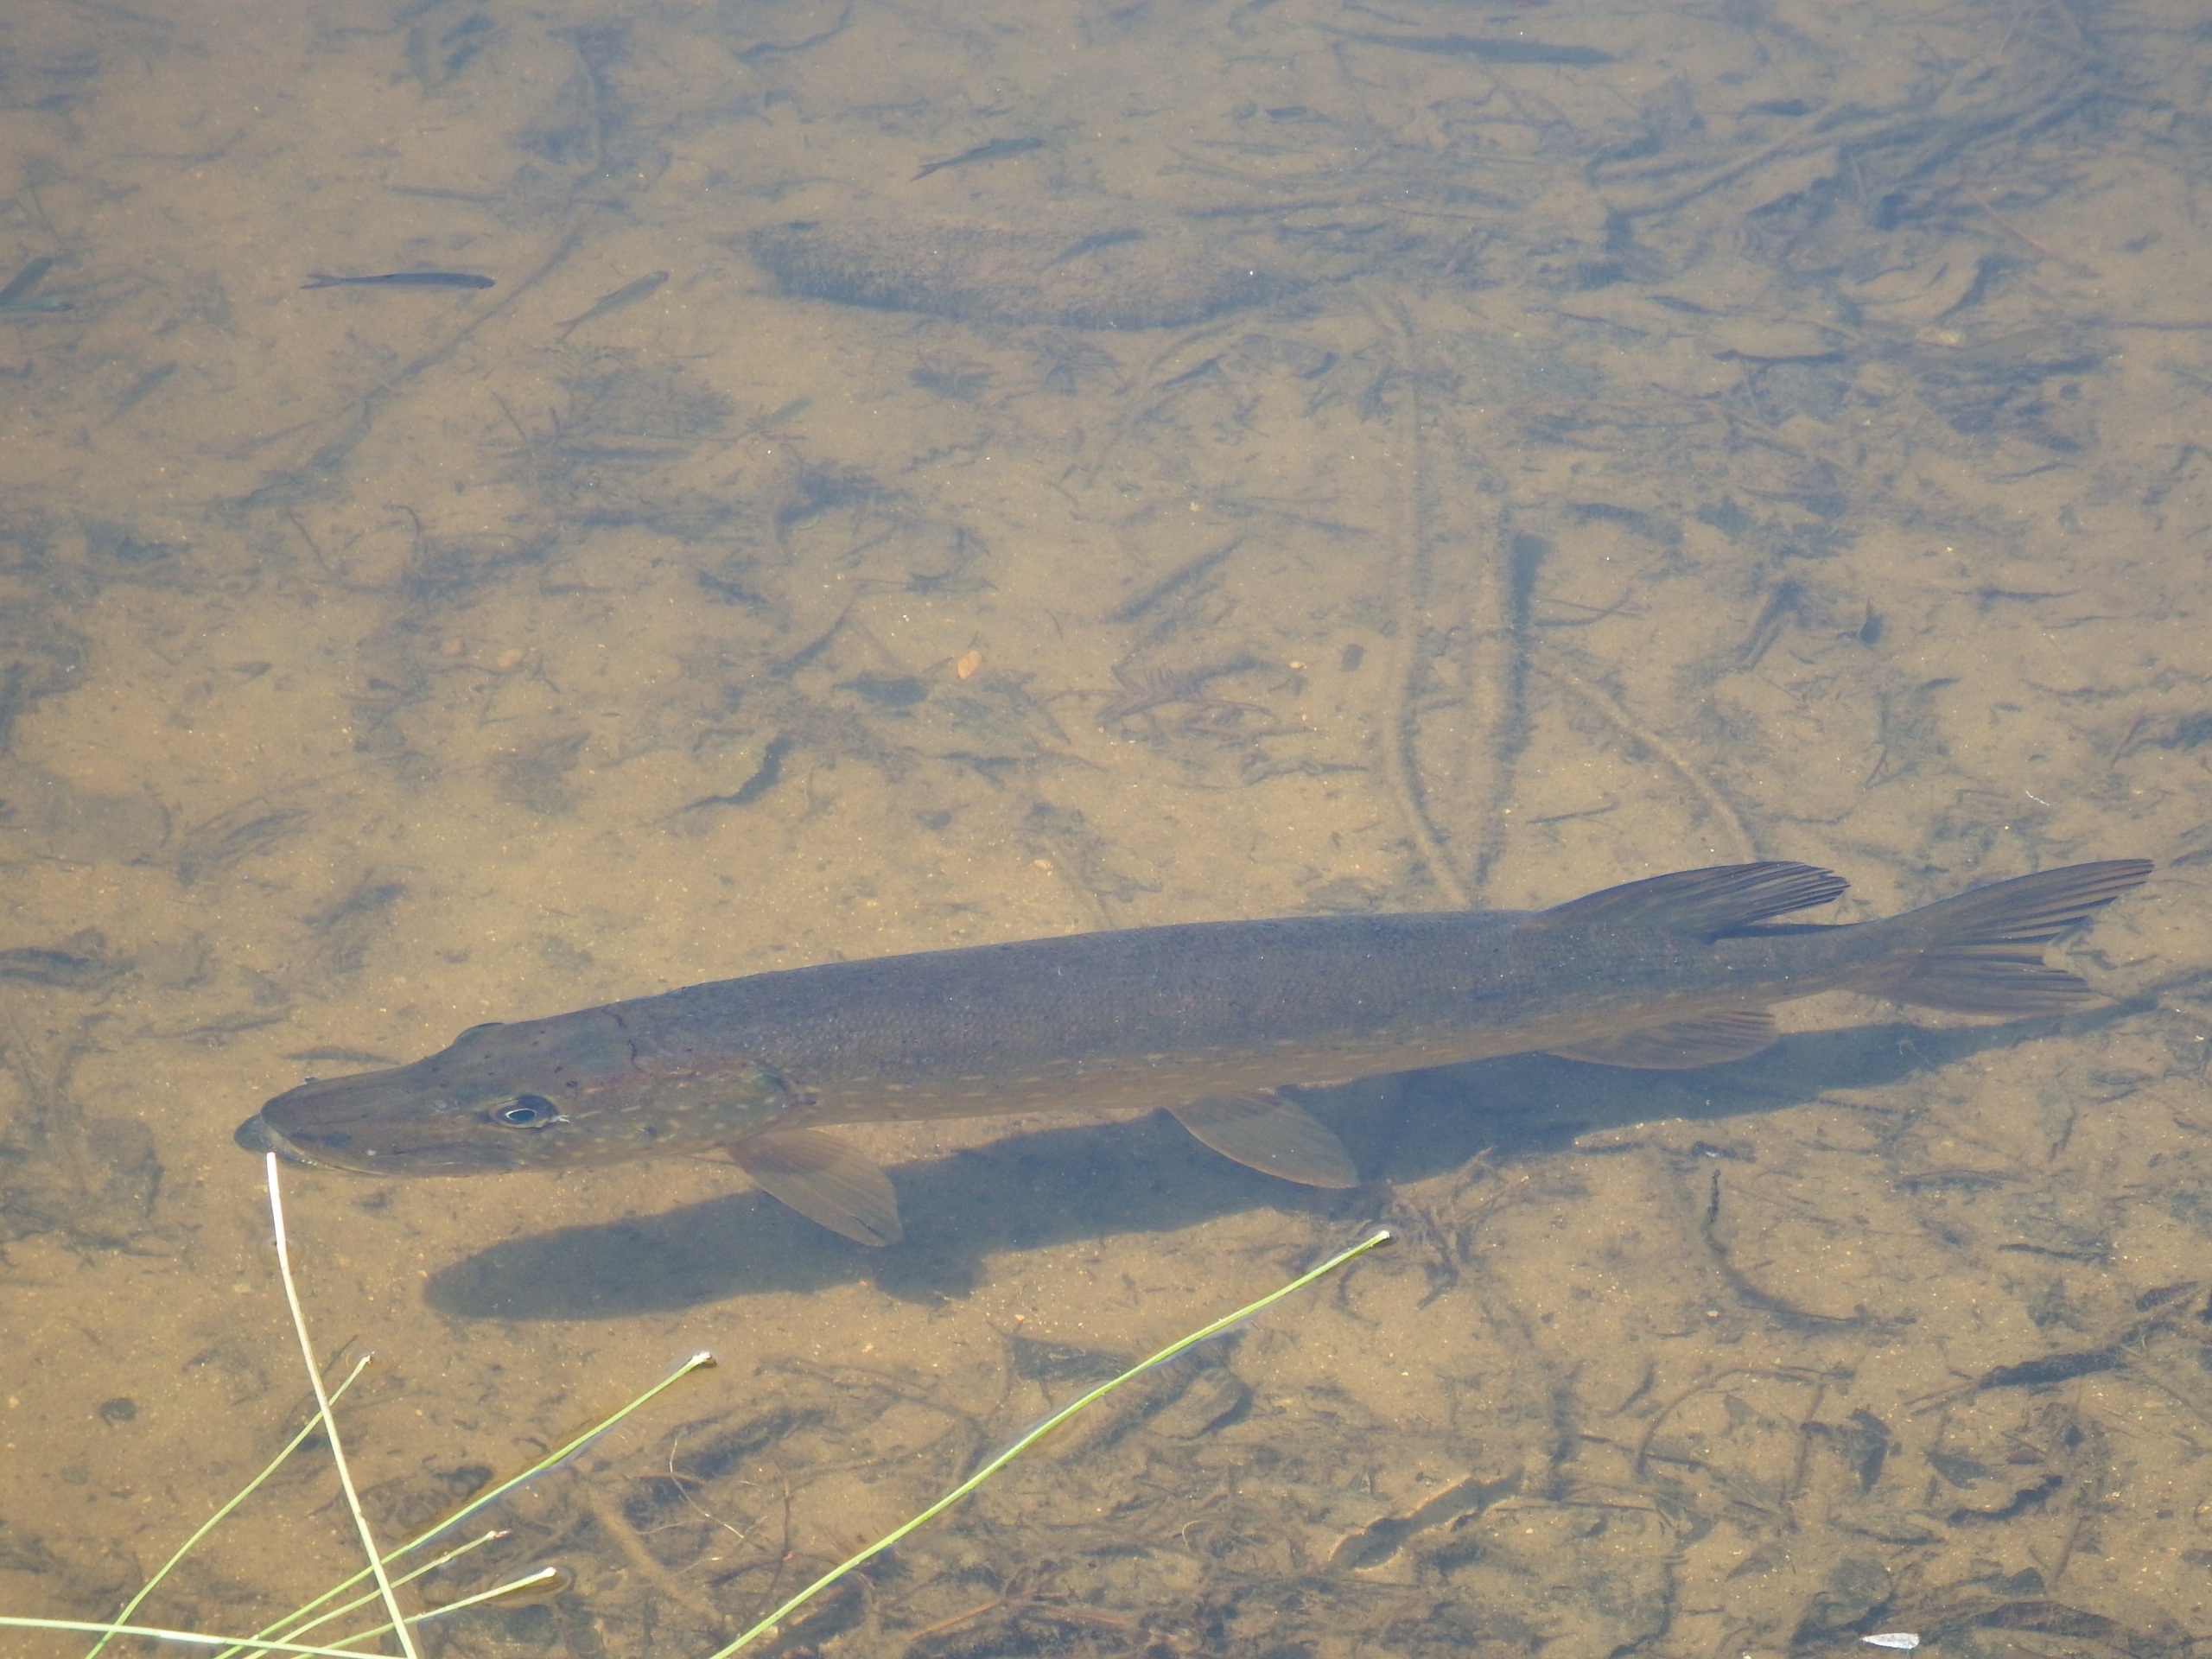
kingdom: Animalia
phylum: Chordata
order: Esociformes
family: Esocidae
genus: Esox
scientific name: Esox lucius
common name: Gedde
